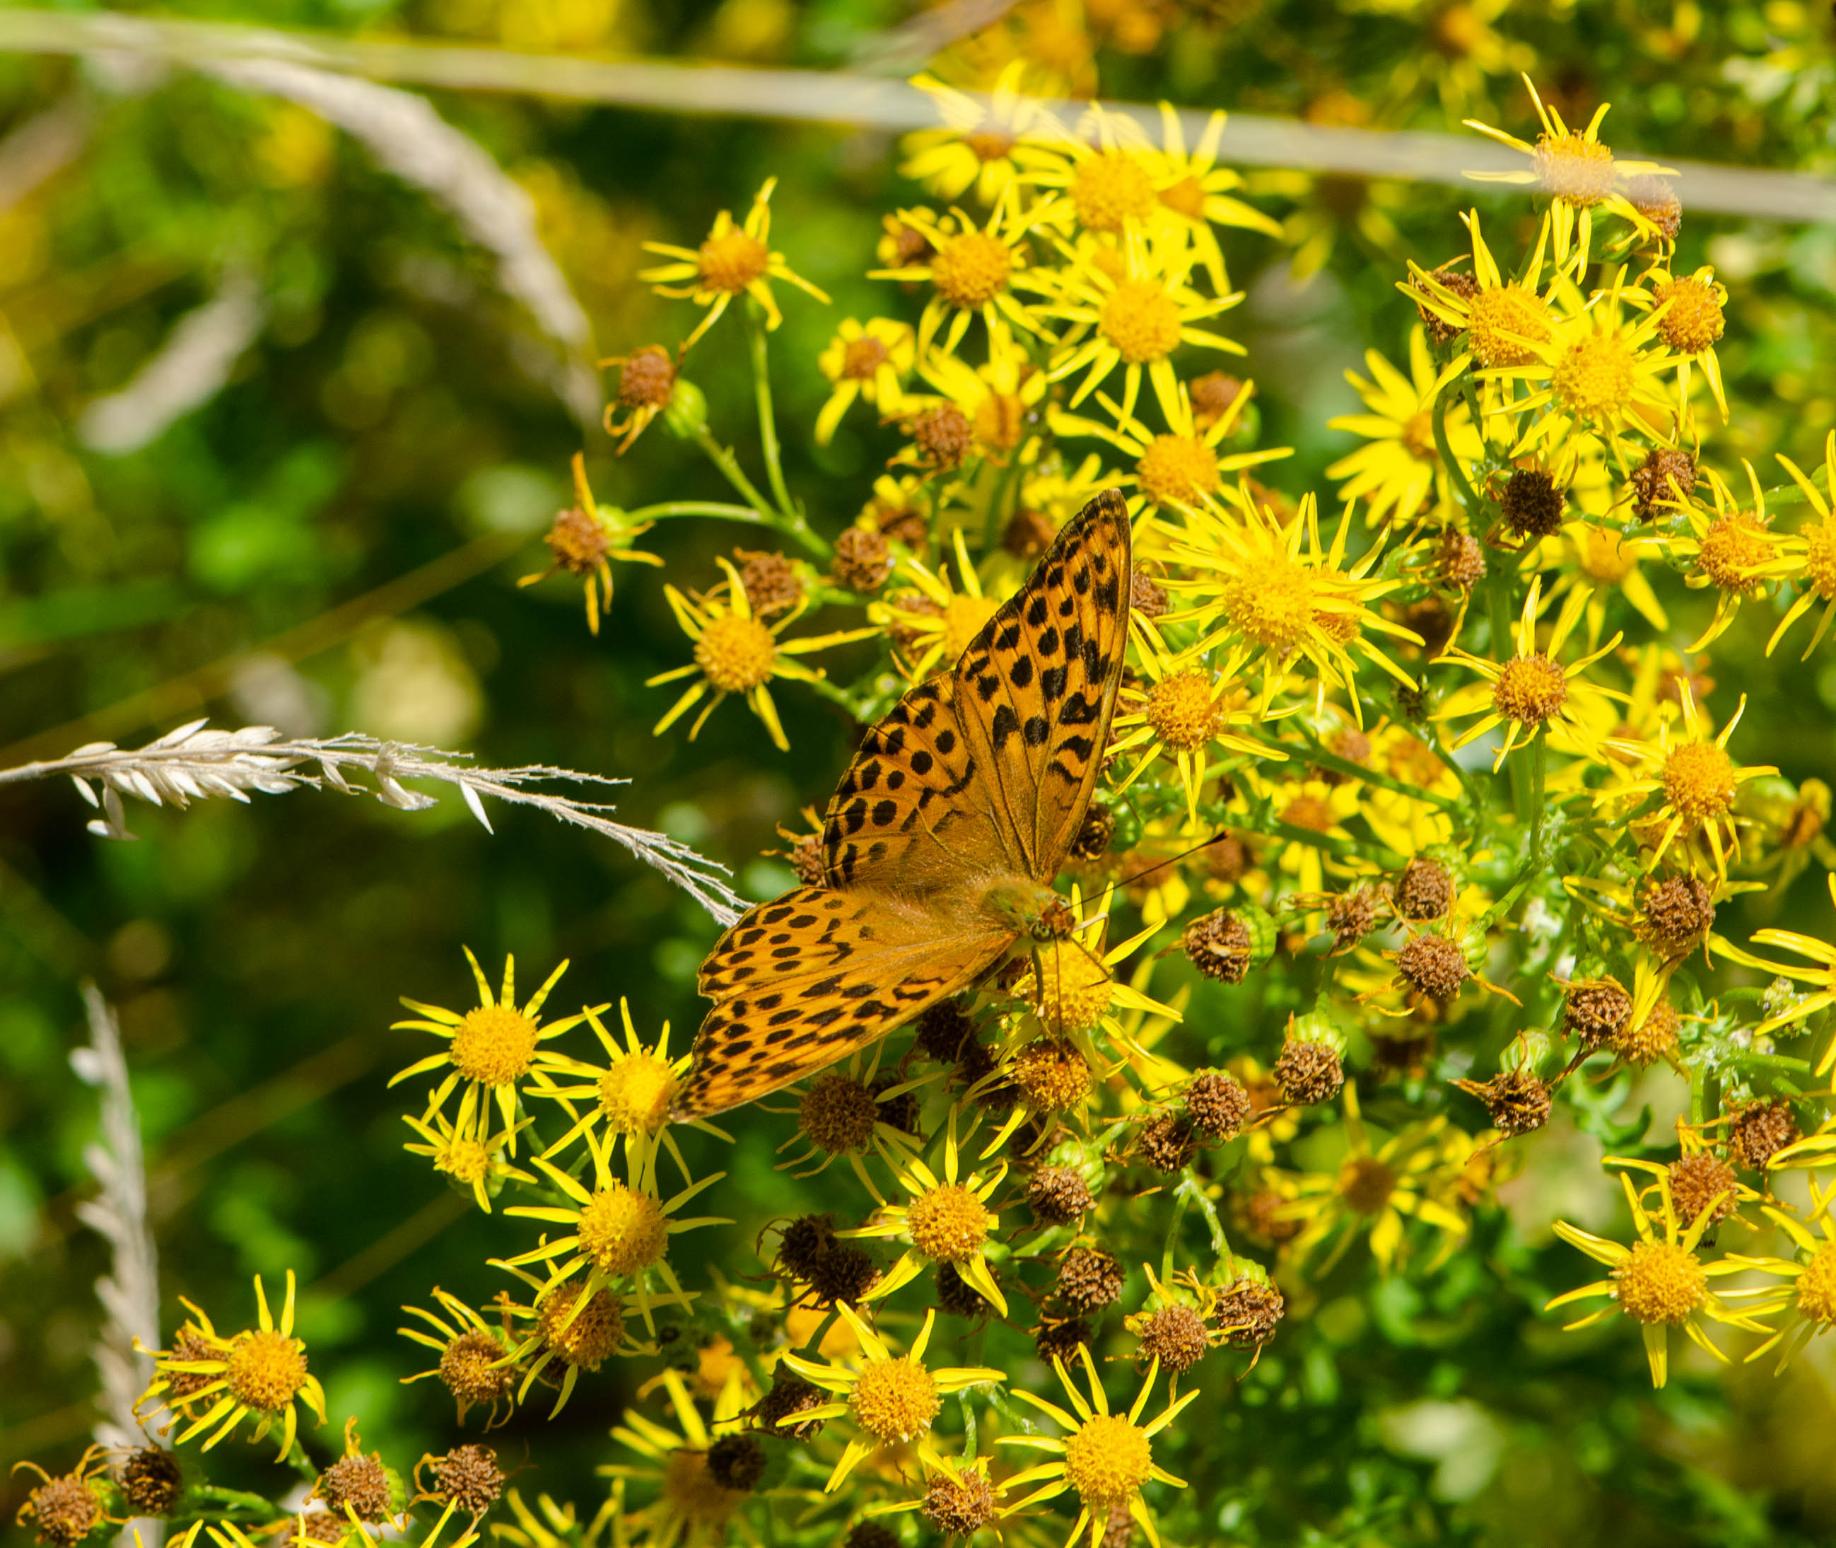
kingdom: Animalia
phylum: Arthropoda
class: Insecta
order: Lepidoptera
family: Nymphalidae
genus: Argynnis
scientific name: Argynnis paphia
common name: Kejserkåbe
